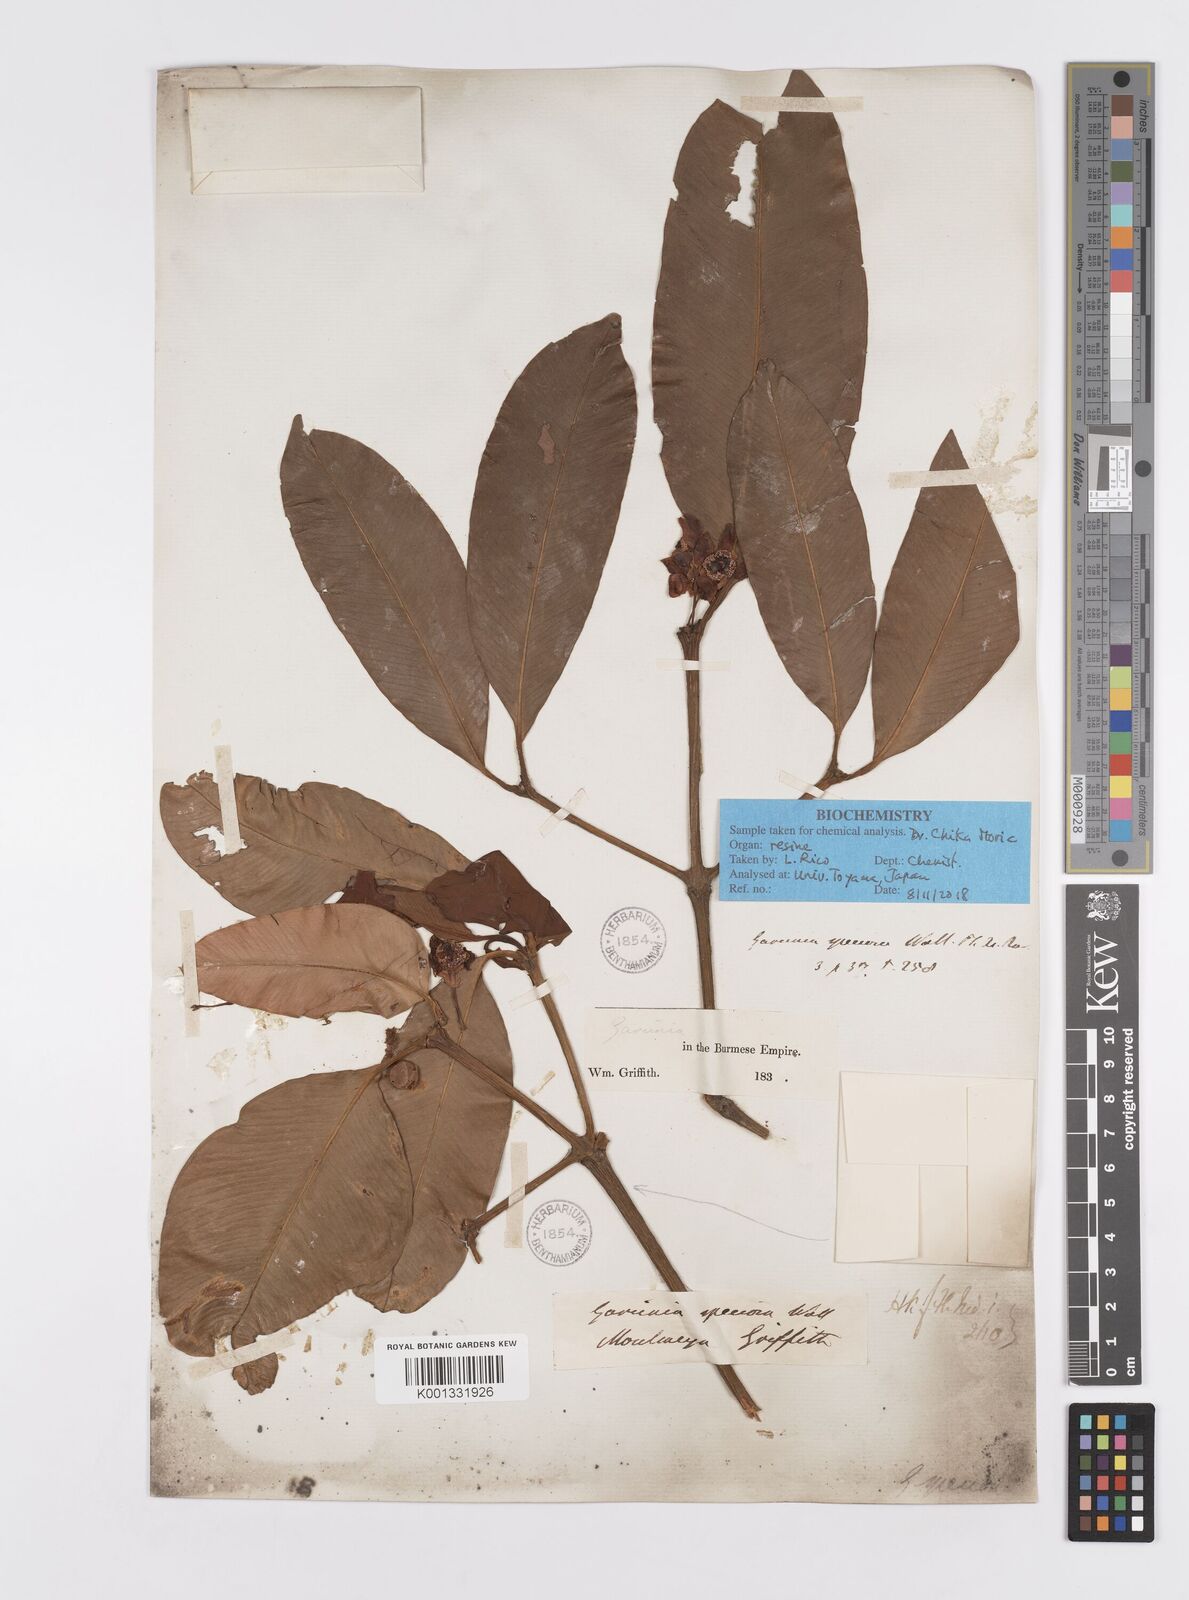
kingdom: Plantae
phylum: Tracheophyta
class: Magnoliopsida
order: Malpighiales
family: Clusiaceae
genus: Garcinia
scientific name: Garcinia celebica
